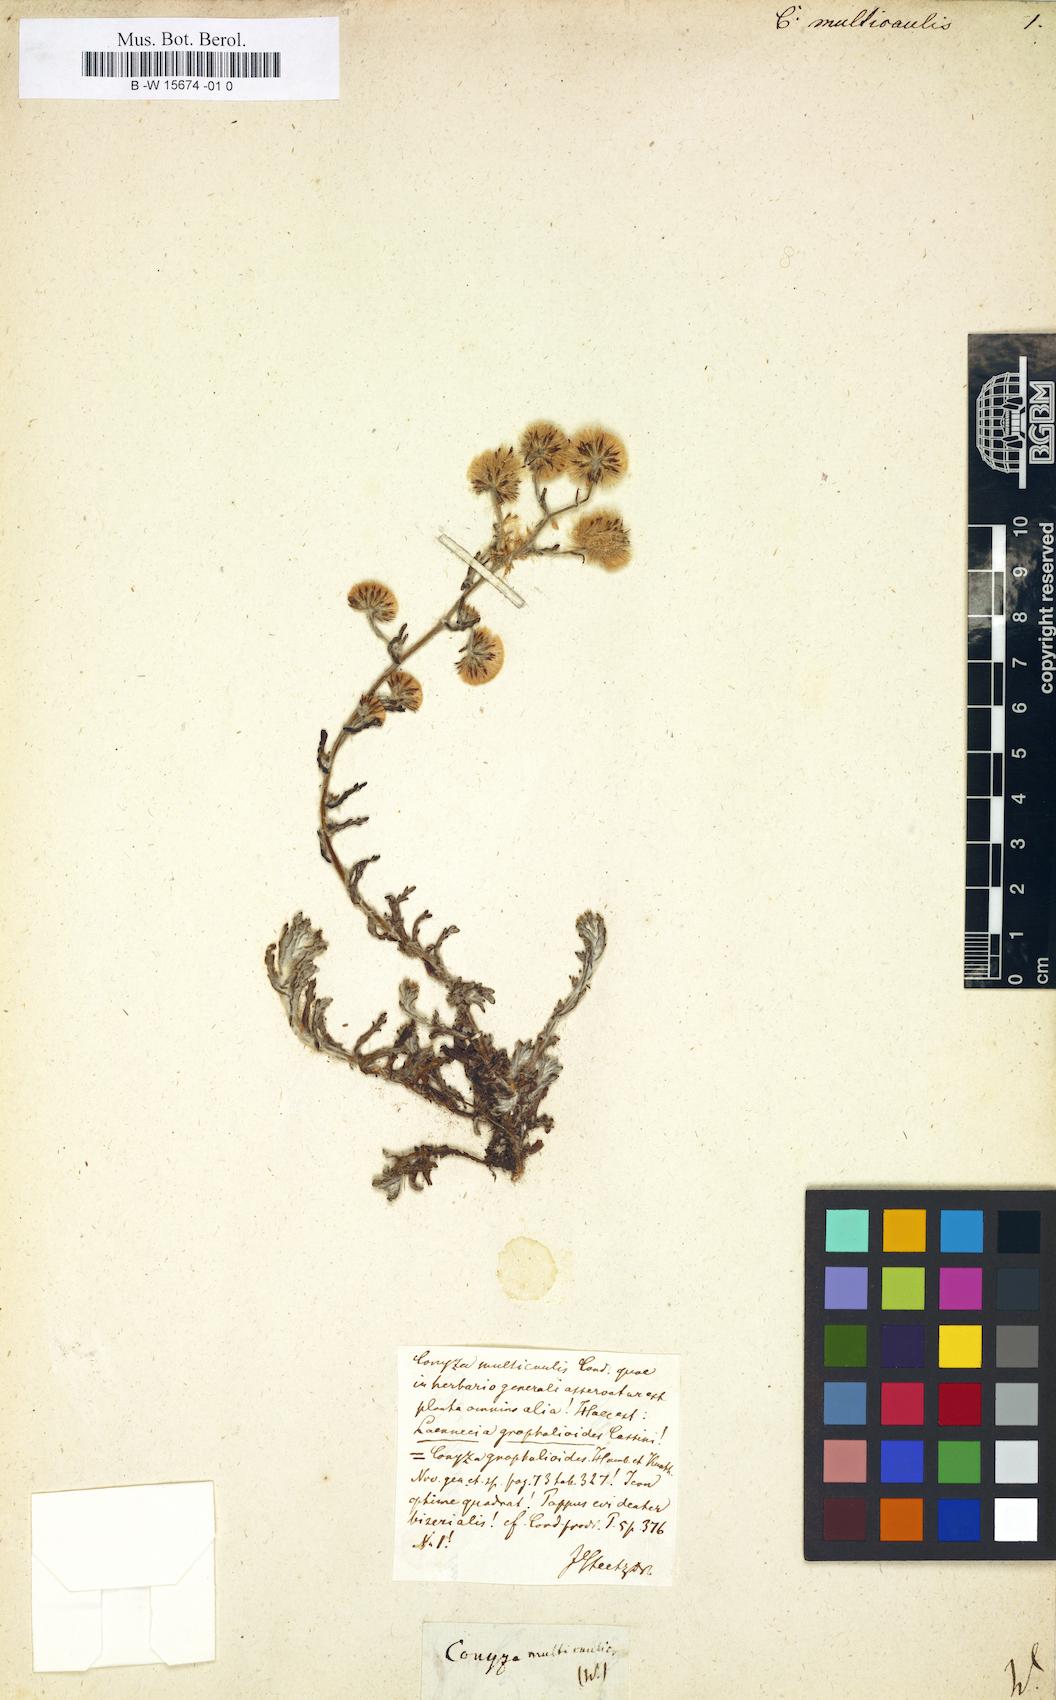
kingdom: Plantae
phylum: Tracheophyta
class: Magnoliopsida
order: Asterales
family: Asteraceae
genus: Eschenbachia
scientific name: Eschenbachia japonica
